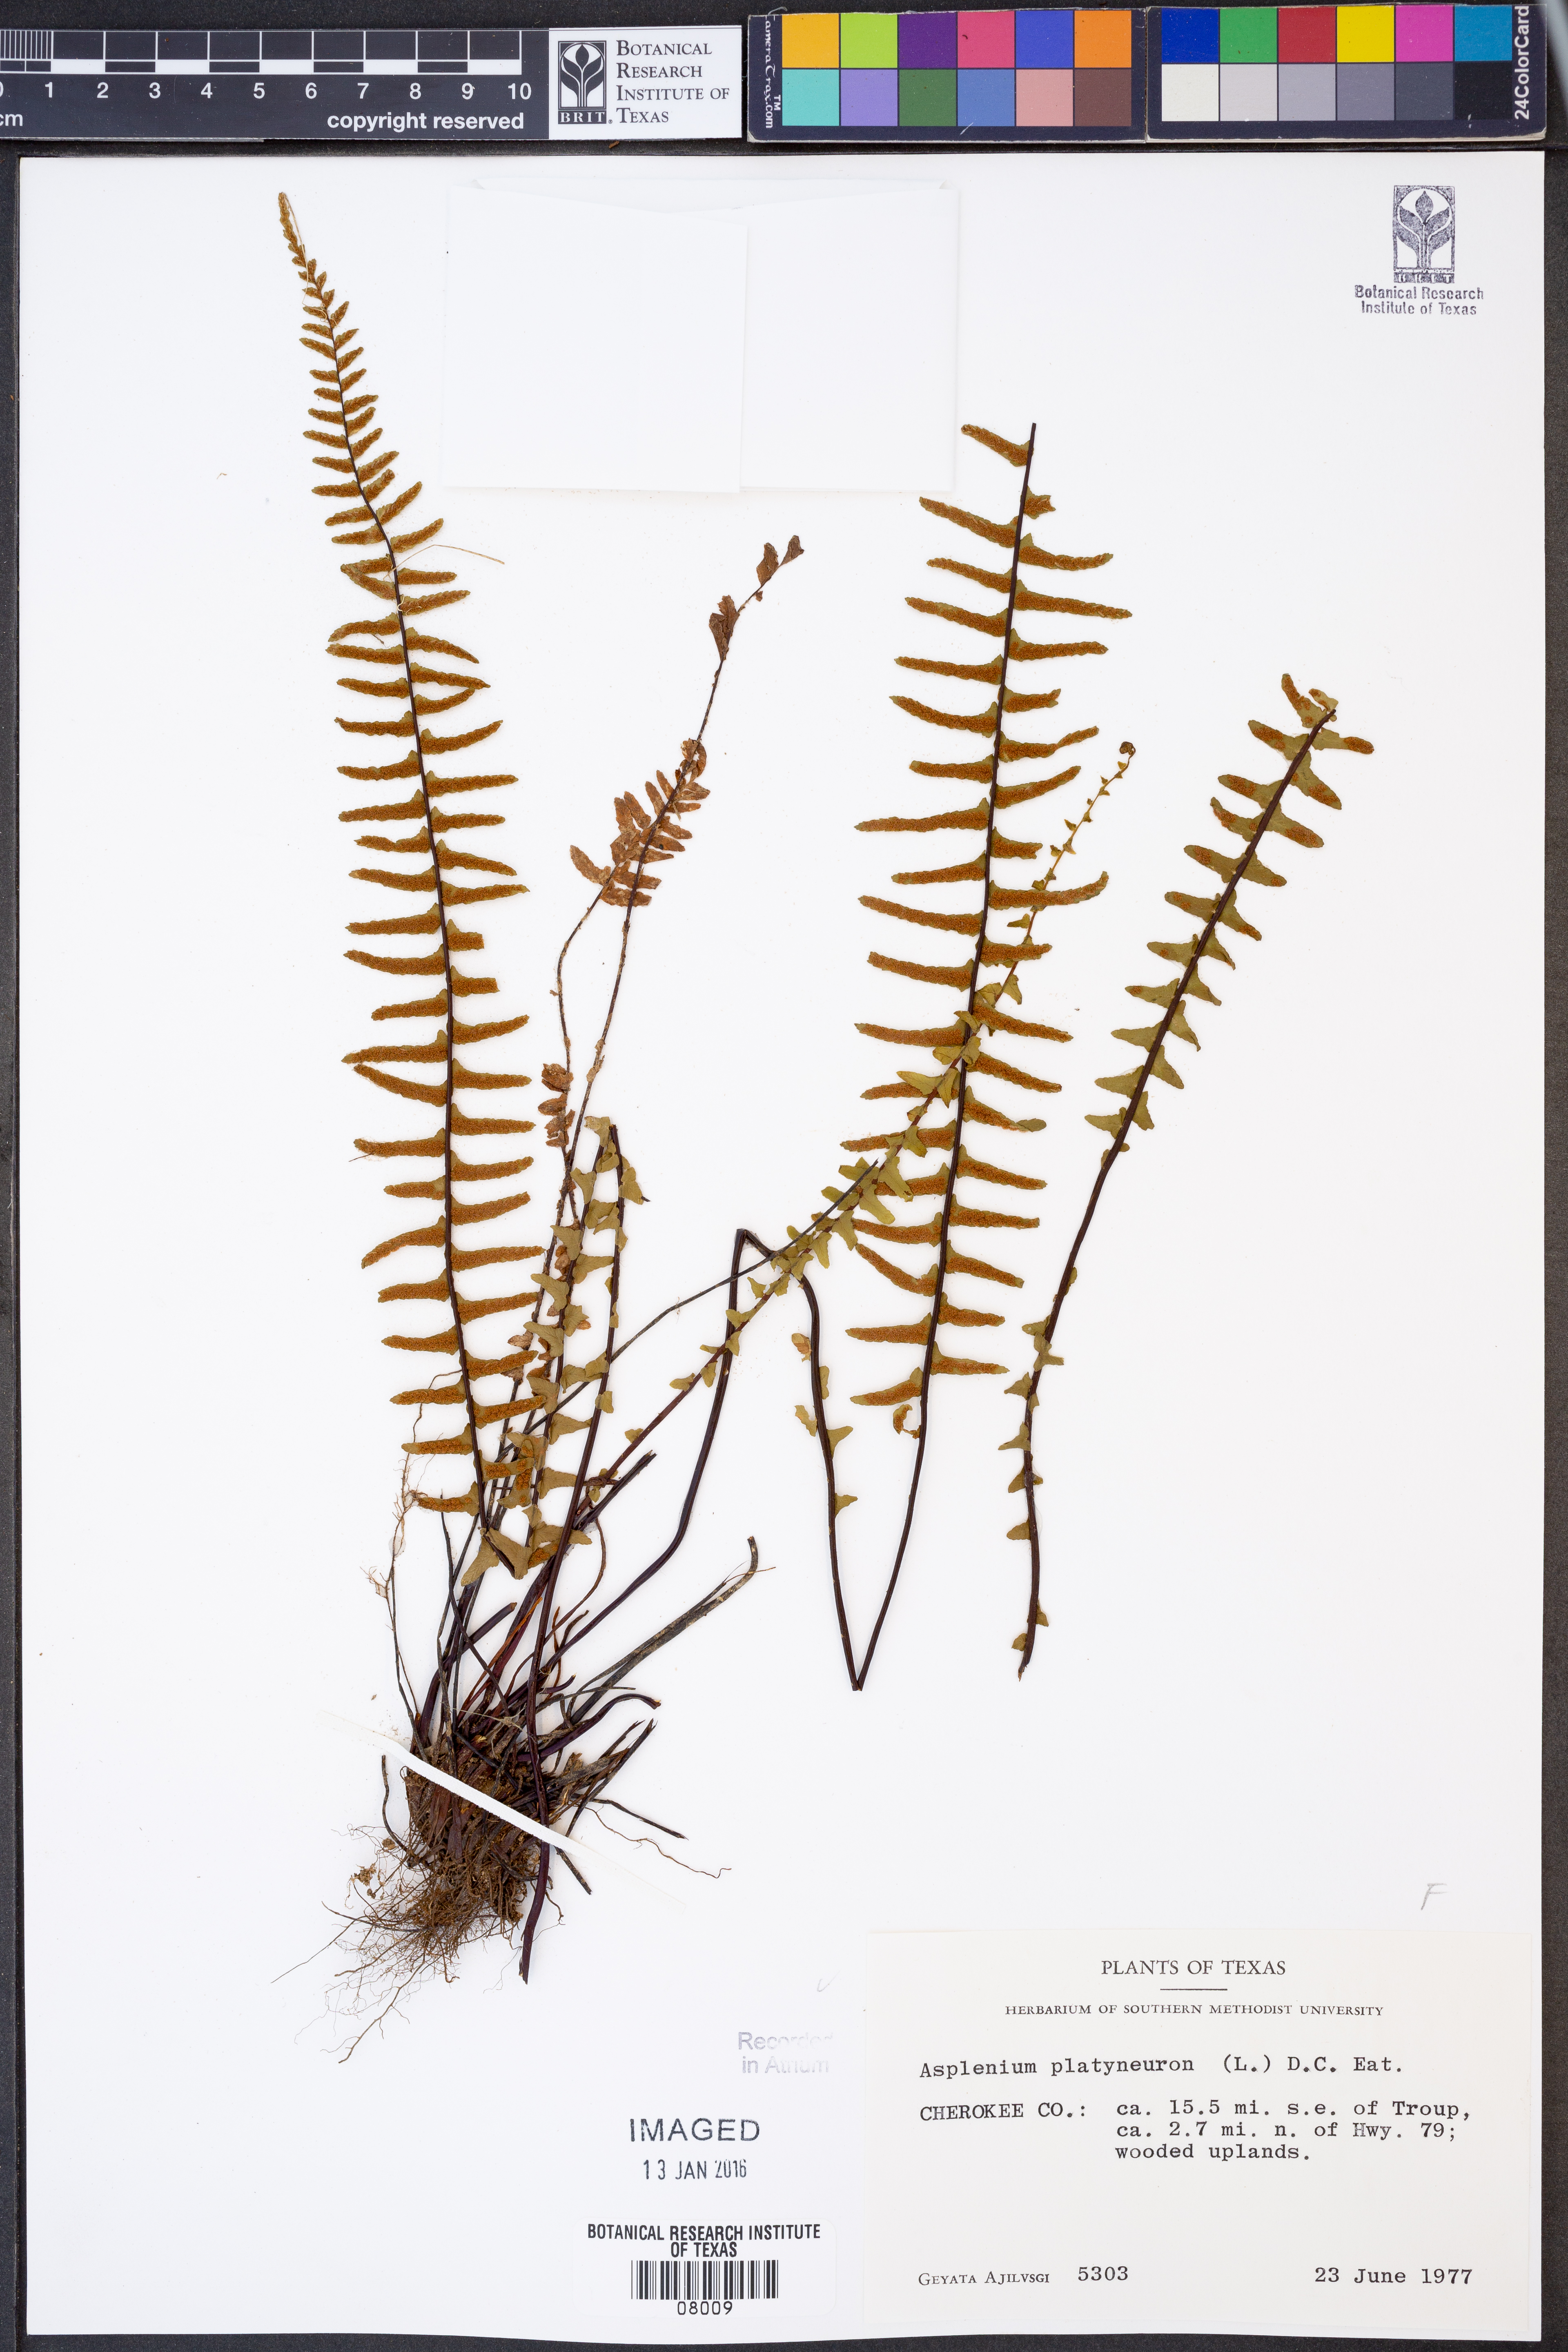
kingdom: Plantae
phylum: Tracheophyta
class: Polypodiopsida
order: Polypodiales
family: Aspleniaceae
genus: Asplenium
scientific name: Asplenium platyneuron
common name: Ebony spleenwort
